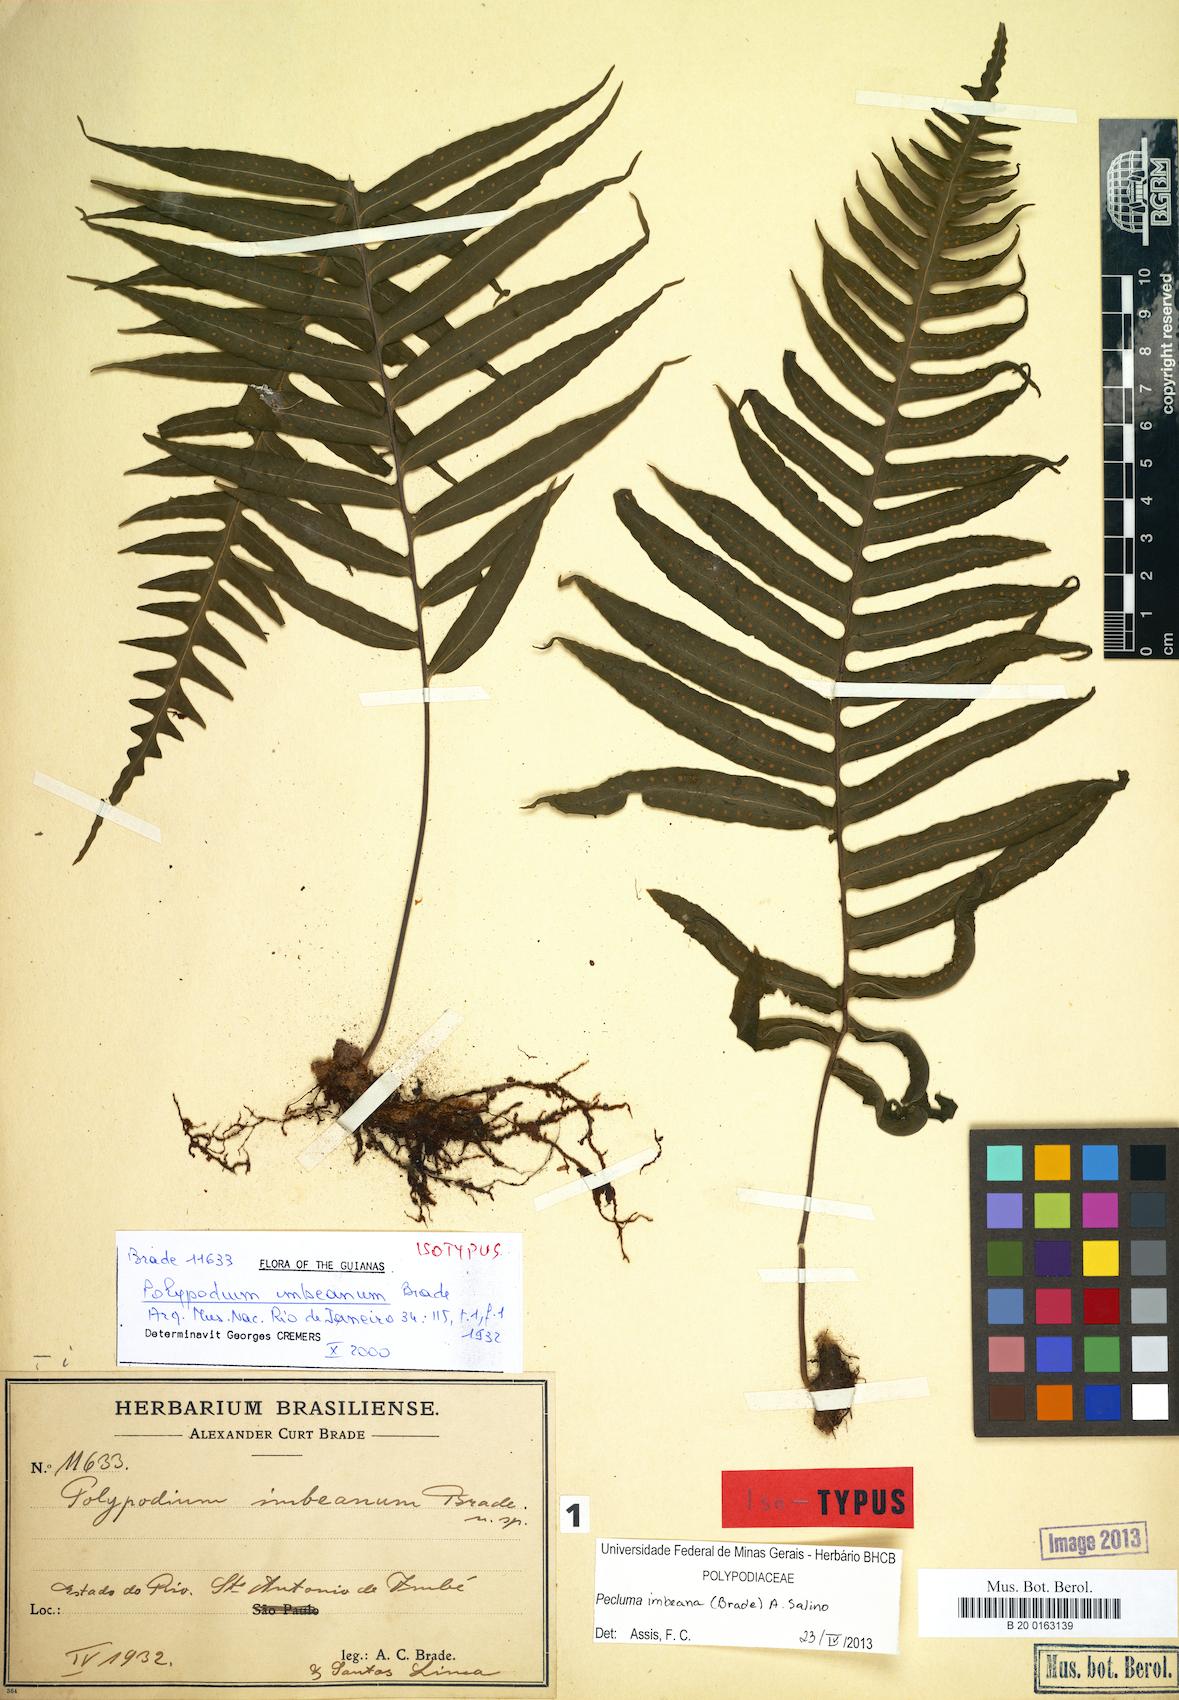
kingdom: Plantae
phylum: Tracheophyta
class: Polypodiopsida
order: Polypodiales
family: Polypodiaceae
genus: Pecluma
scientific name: Pecluma imbeana
